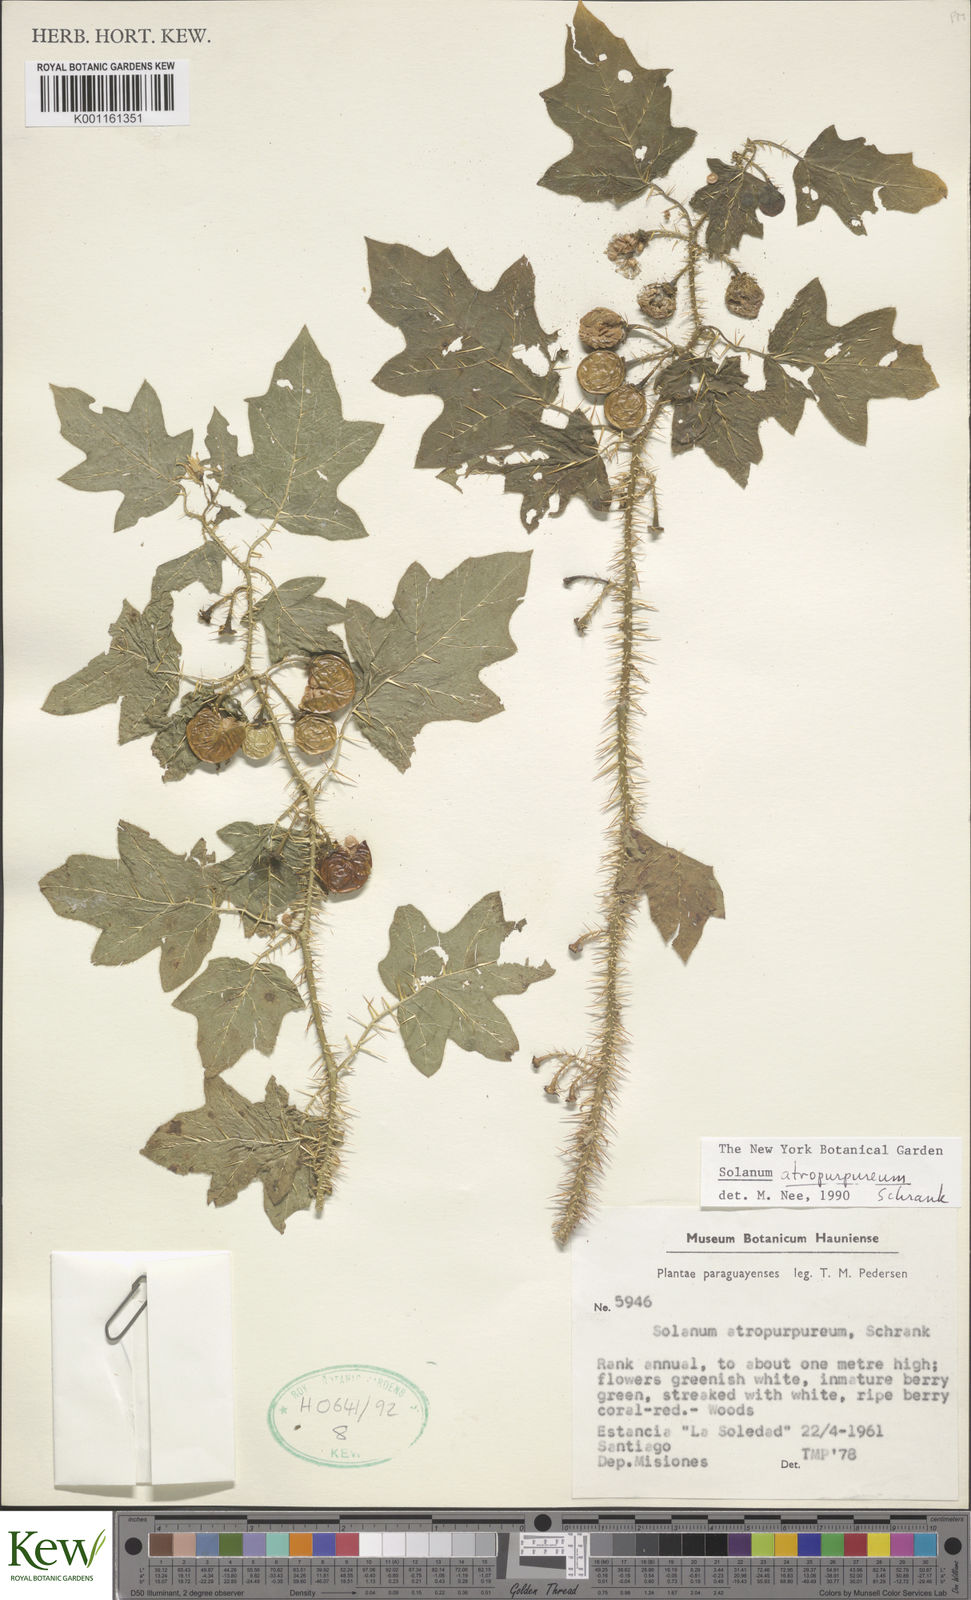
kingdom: Plantae
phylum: Tracheophyta
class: Magnoliopsida
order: Solanales
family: Solanaceae
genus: Solanum
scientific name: Solanum atropurpureum
